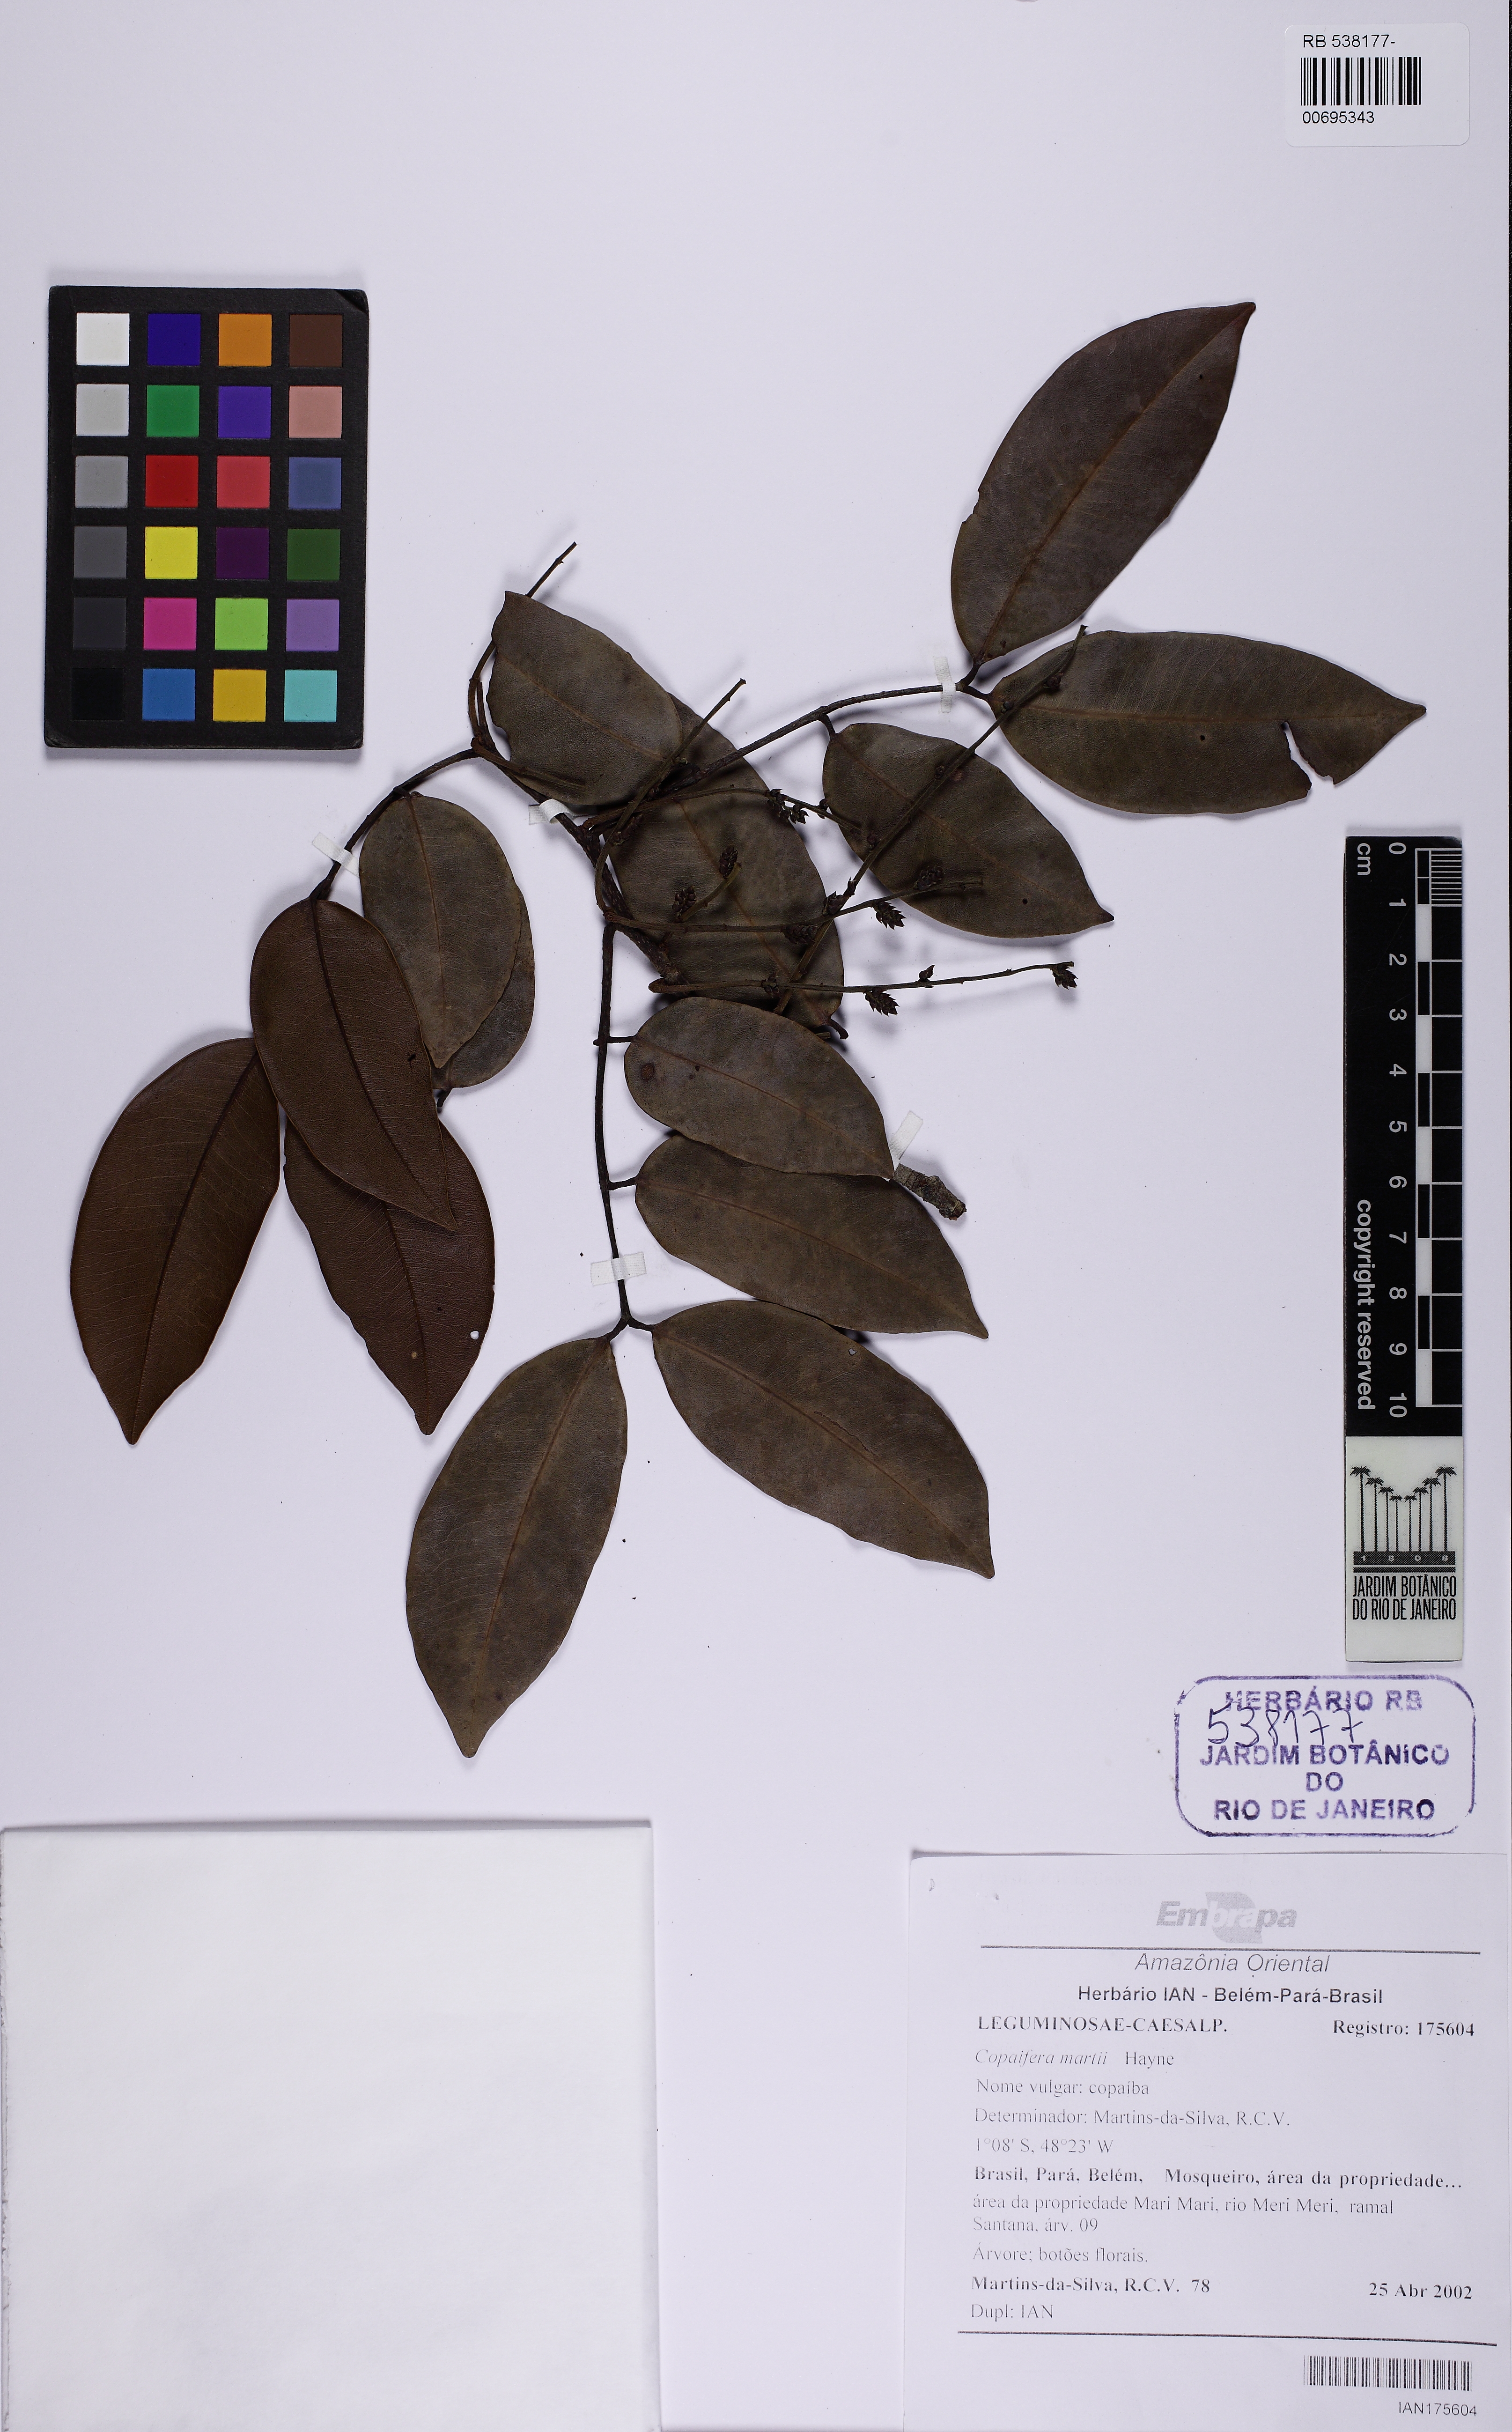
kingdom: Plantae
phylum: Tracheophyta
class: Magnoliopsida
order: Fabales
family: Fabaceae
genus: Copaifera
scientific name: Copaifera martii
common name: Copaiba
